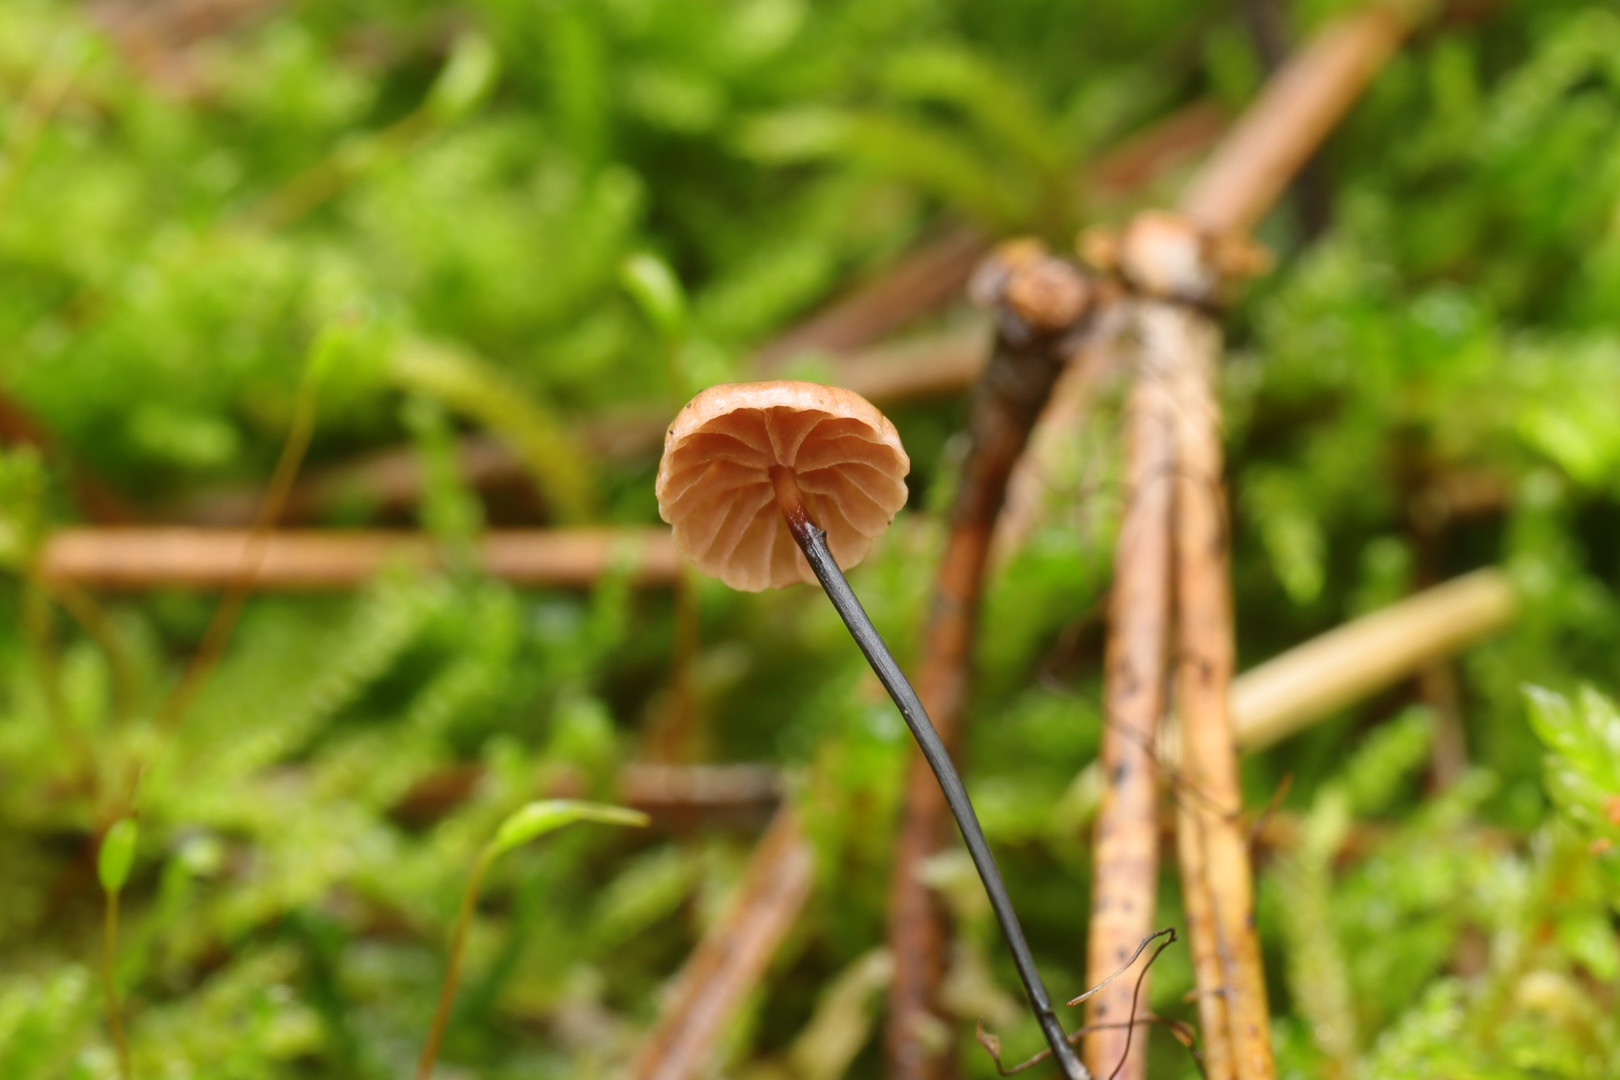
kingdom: Fungi
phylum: Basidiomycota
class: Agaricomycetes
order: Agaricales
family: Omphalotaceae
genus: Paragymnopus
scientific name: Paragymnopus perforans
